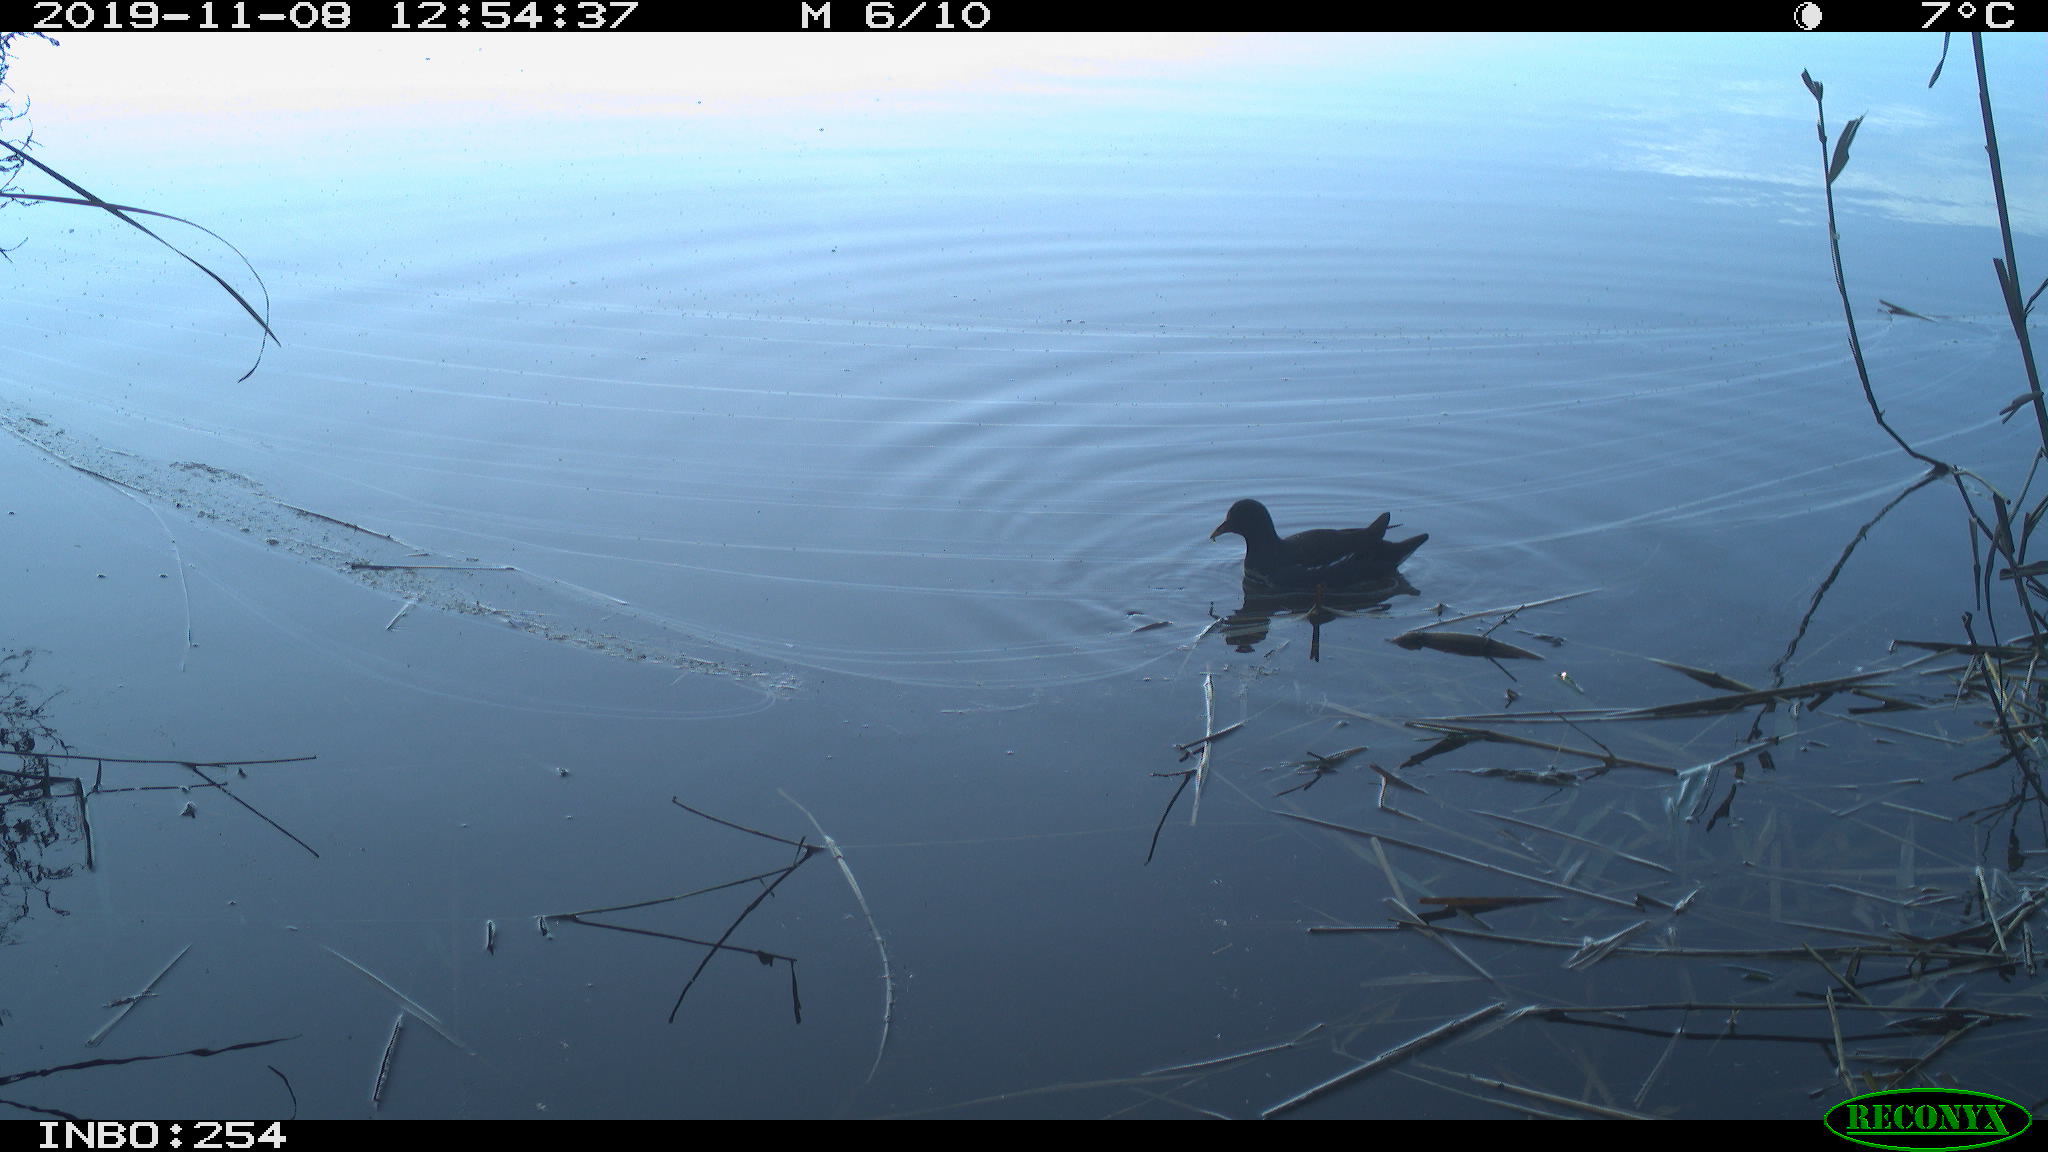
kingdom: Animalia
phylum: Chordata
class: Aves
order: Gruiformes
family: Rallidae
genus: Gallinula
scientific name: Gallinula chloropus
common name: Common moorhen
